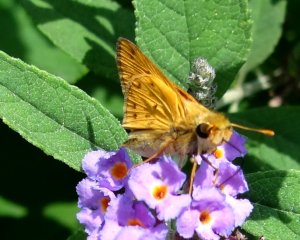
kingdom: Animalia
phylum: Arthropoda
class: Insecta
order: Lepidoptera
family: Hesperiidae
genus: Hylephila
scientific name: Hylephila phyleus
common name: Fiery Skipper
